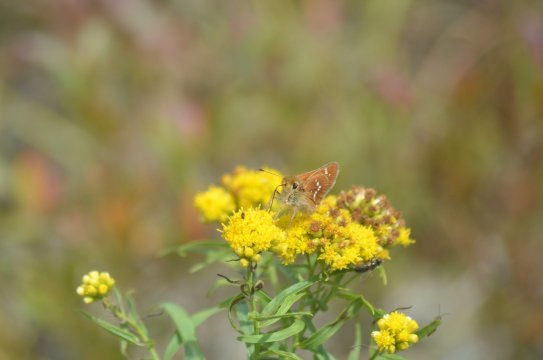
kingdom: Animalia
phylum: Arthropoda
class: Insecta
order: Lepidoptera
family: Hesperiidae
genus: Hesperia
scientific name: Hesperia leonardus
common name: Leonard's Skipper
